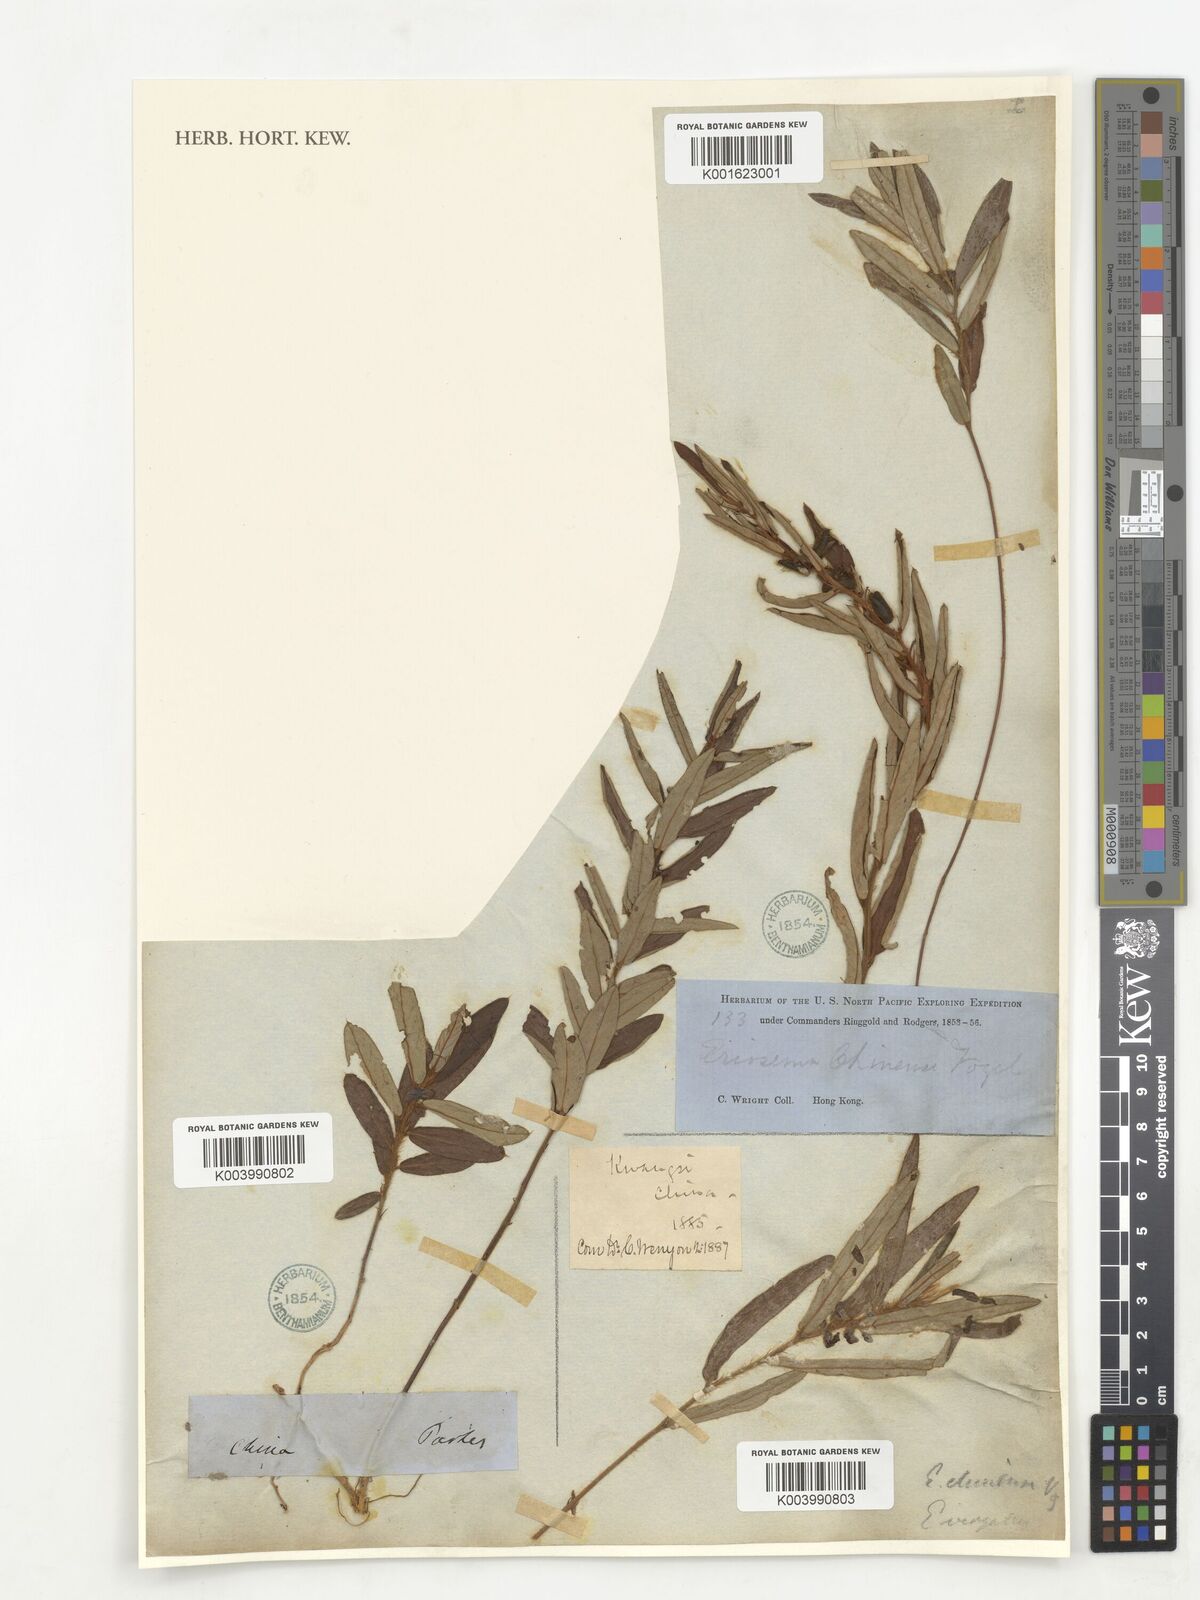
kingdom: Plantae
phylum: Tracheophyta
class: Magnoliopsida
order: Fabales
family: Fabaceae
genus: Eriosema
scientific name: Eriosema chinense
